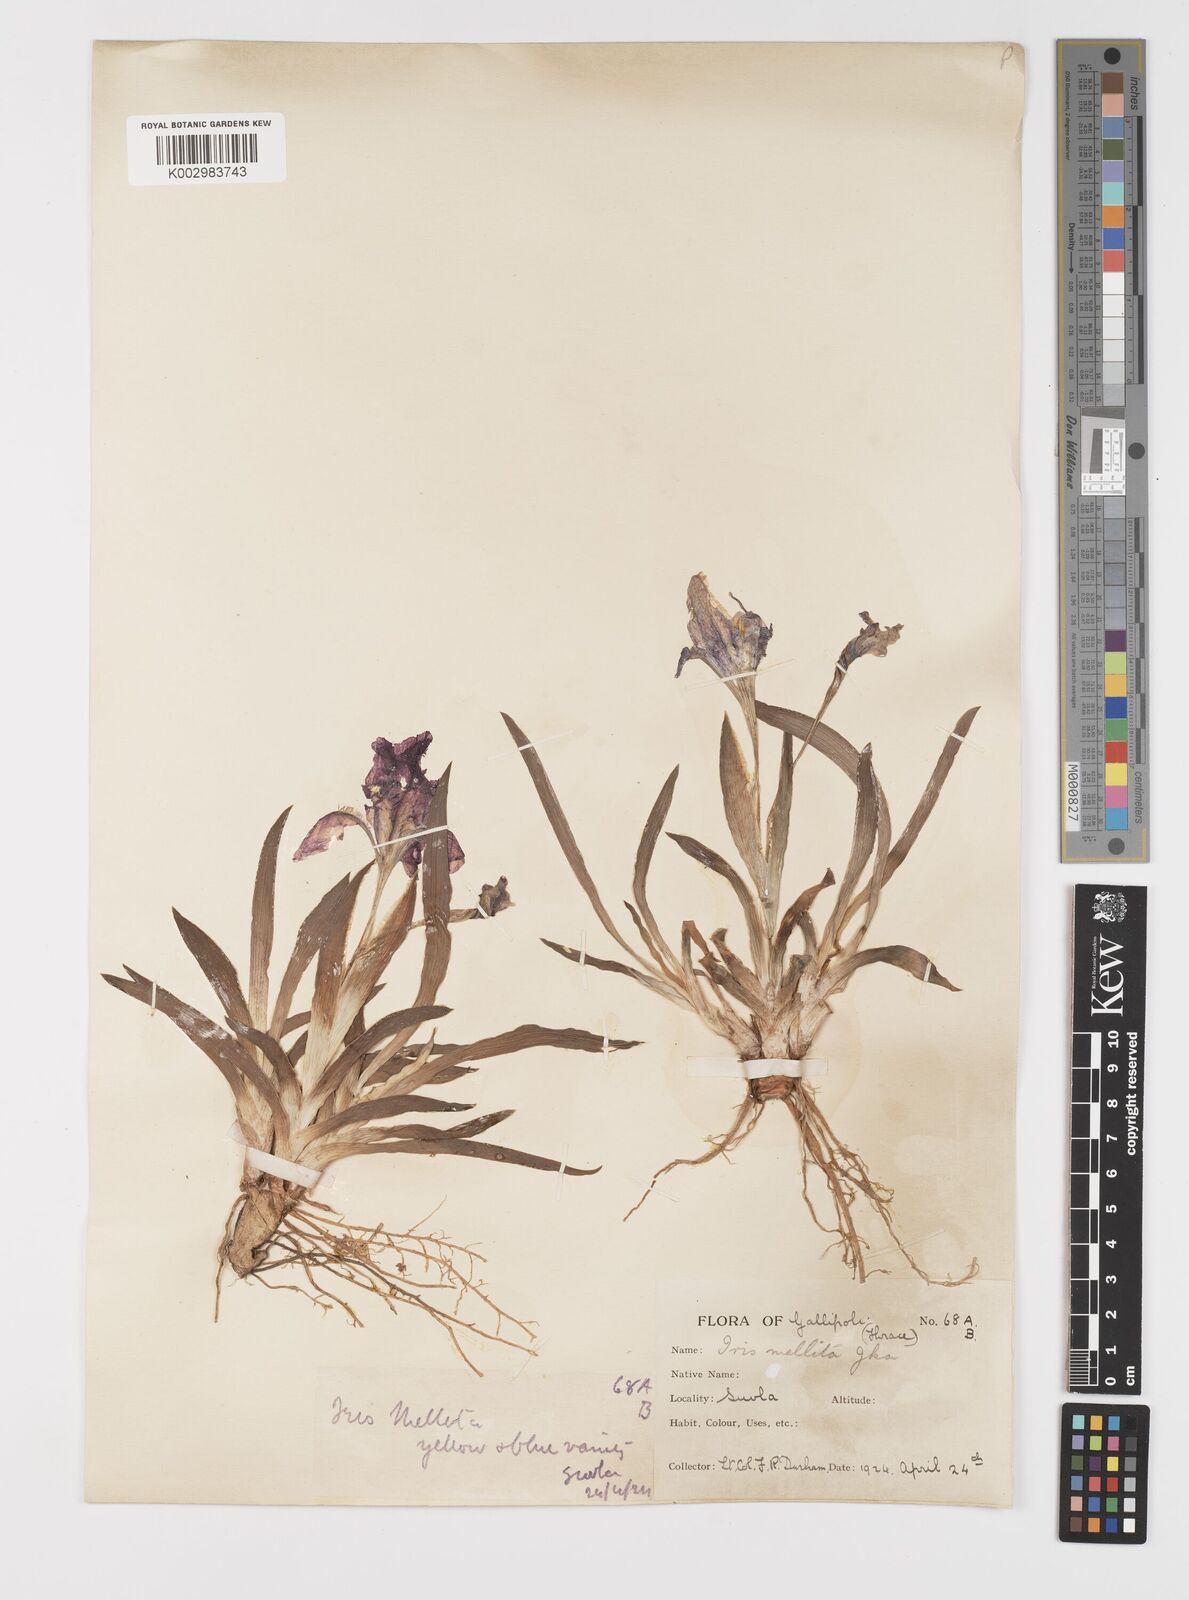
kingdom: Plantae
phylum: Tracheophyta
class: Liliopsida
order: Asparagales
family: Iridaceae
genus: Iris
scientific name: Iris suaveolens
